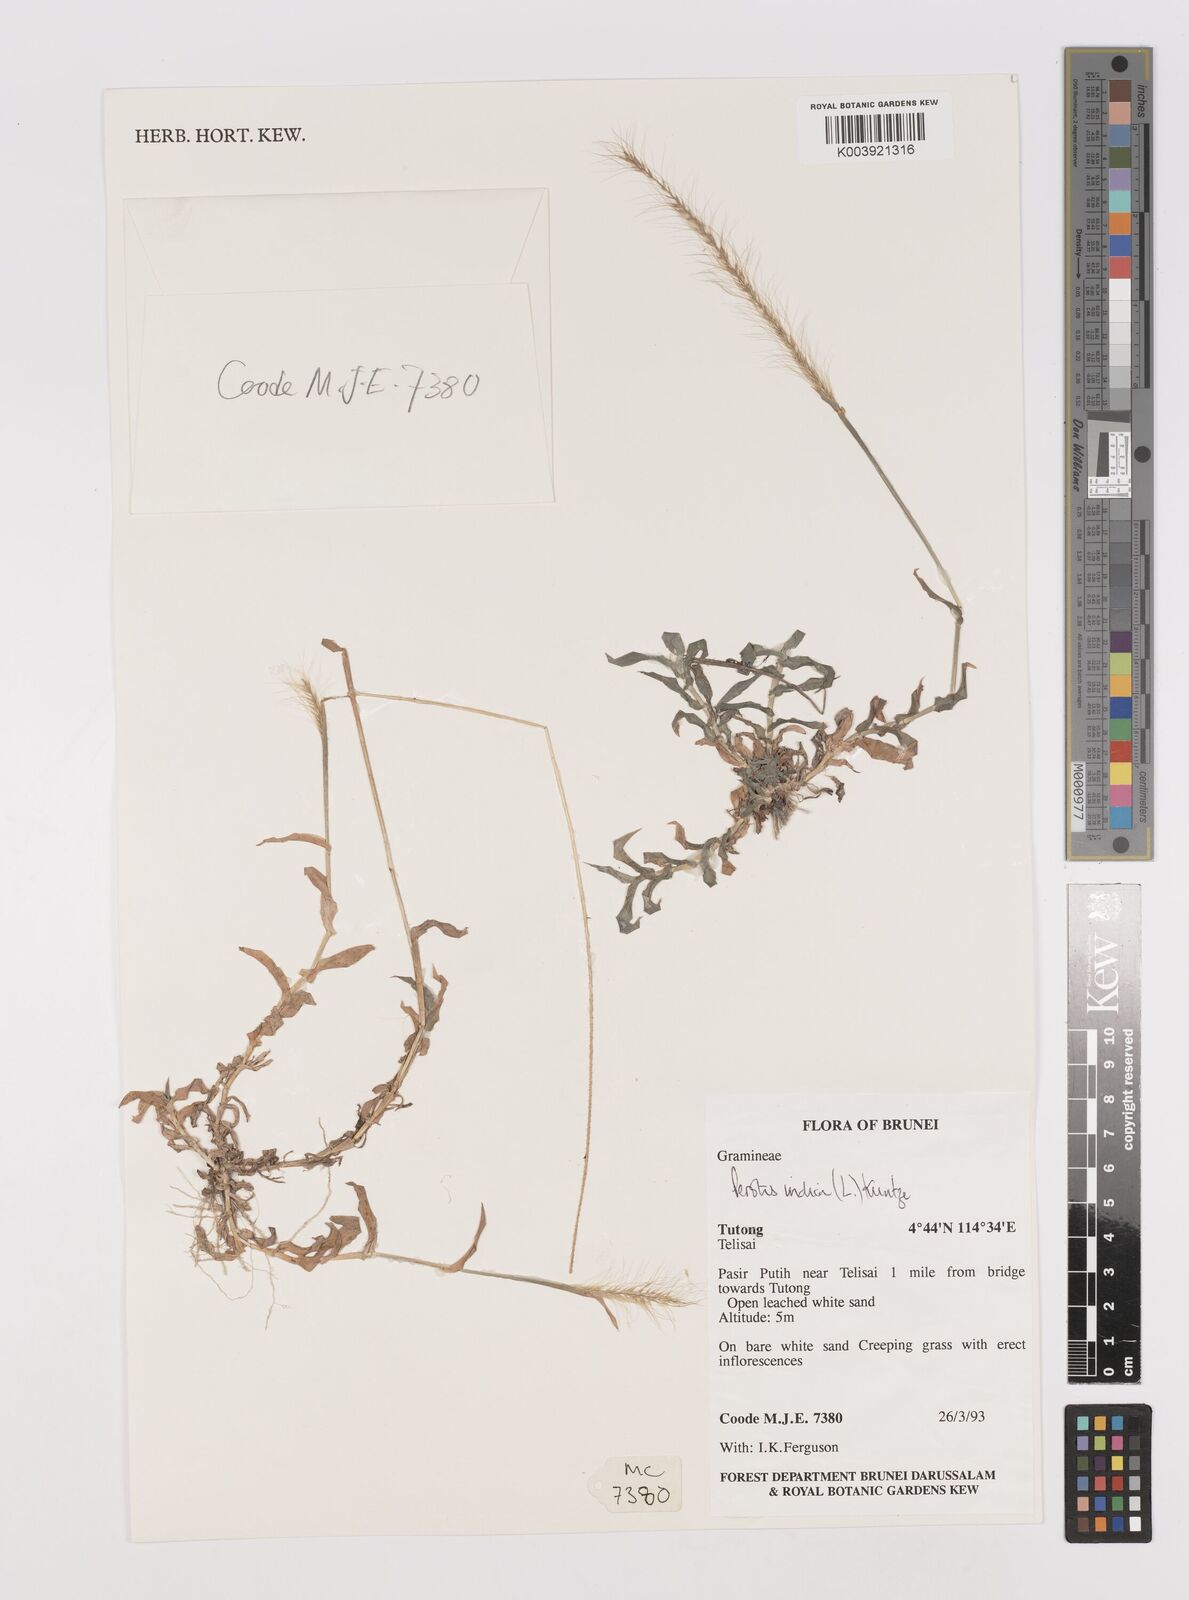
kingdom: Plantae
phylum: Tracheophyta
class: Liliopsida
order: Poales
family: Poaceae
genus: Perotis
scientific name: Perotis indica
